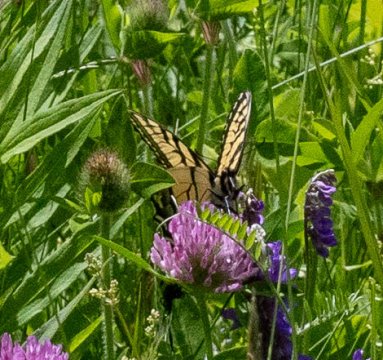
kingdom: Animalia
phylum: Arthropoda
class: Insecta
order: Lepidoptera
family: Papilionidae
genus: Pterourus
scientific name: Pterourus
